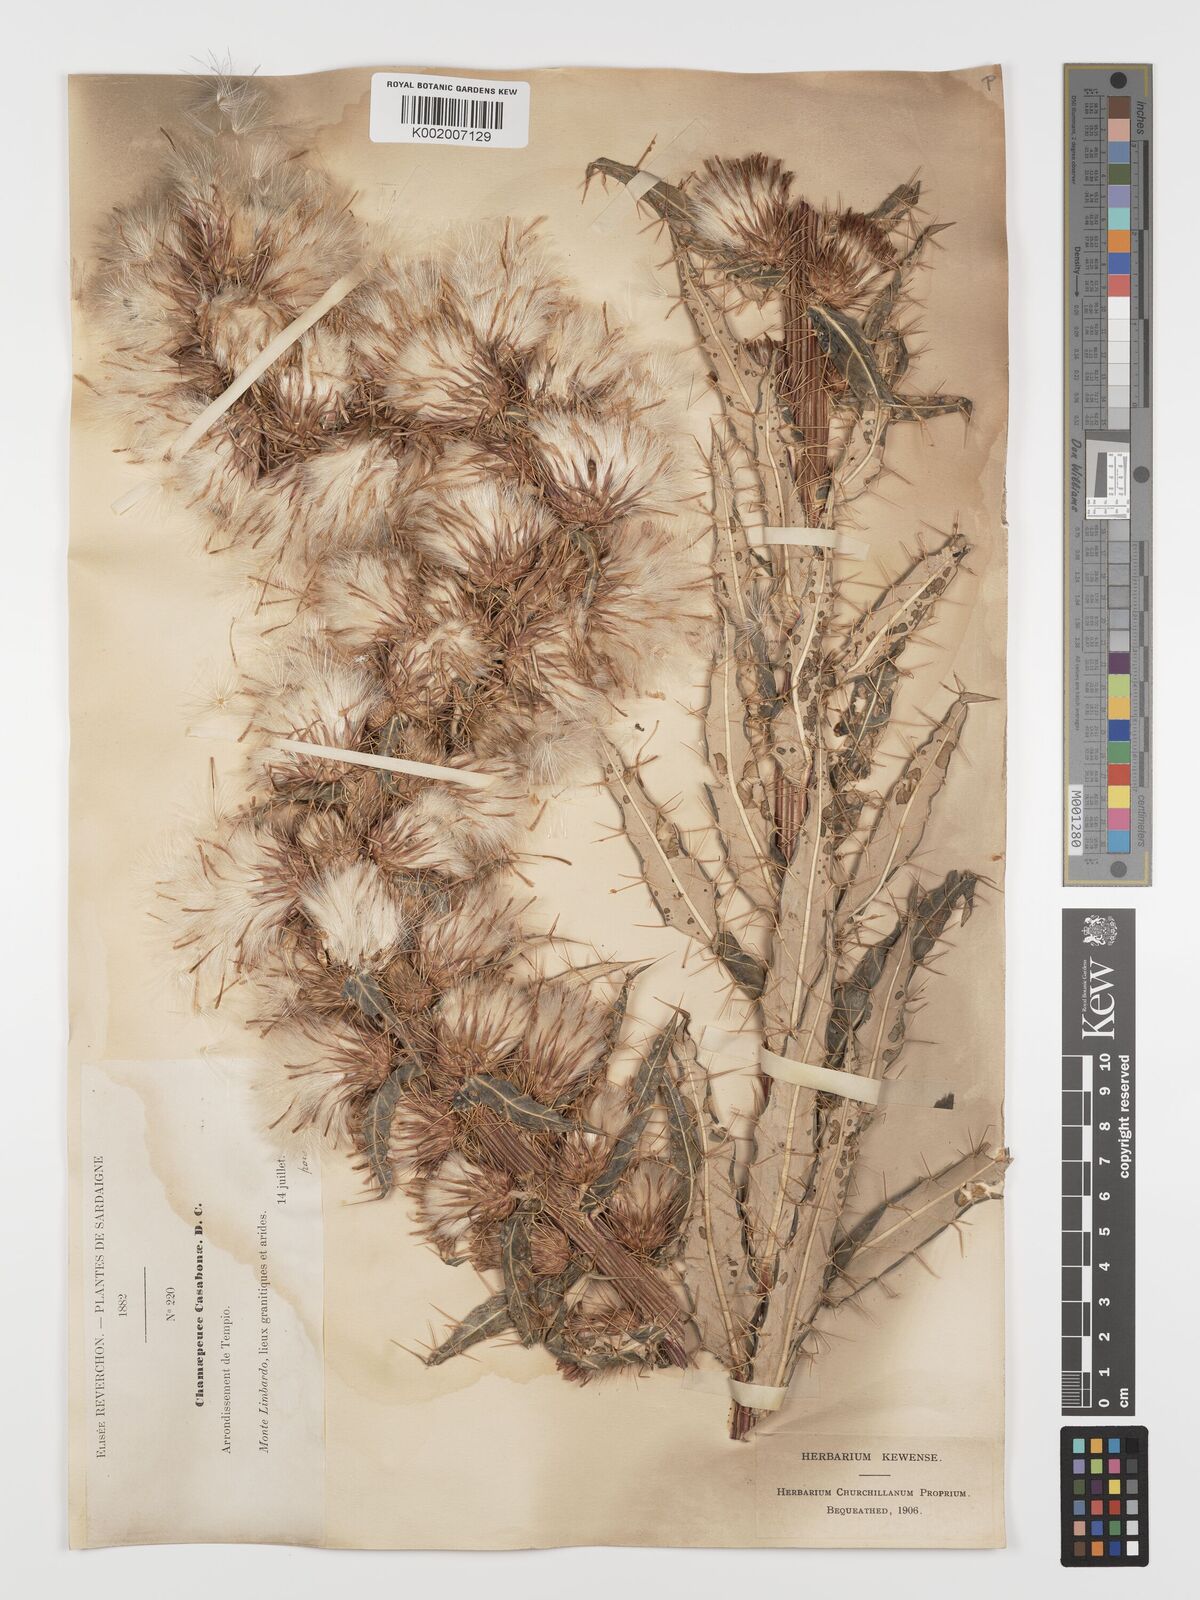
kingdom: Plantae
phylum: Tracheophyta
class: Magnoliopsida
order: Asterales
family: Asteraceae
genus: Ptilostemon
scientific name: Ptilostemon casabonae
